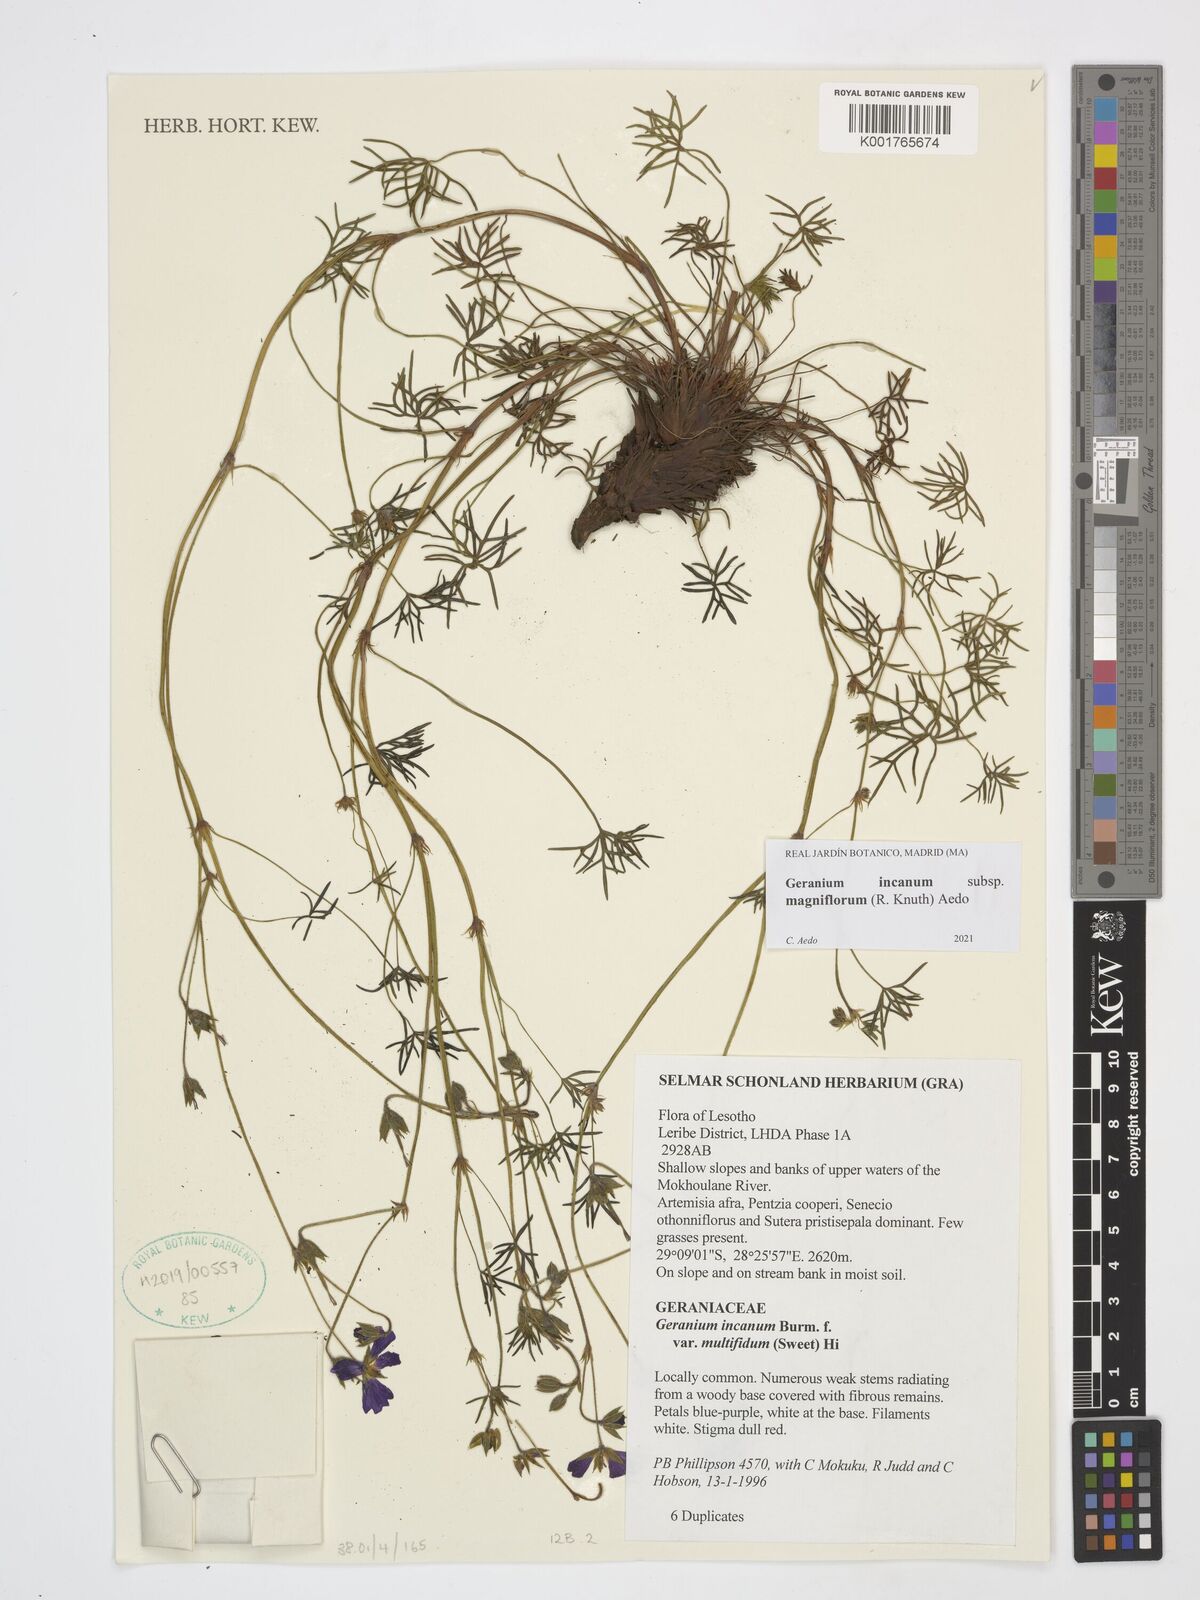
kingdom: Plantae
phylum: Tracheophyta
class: Magnoliopsida
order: Geraniales
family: Geraniaceae
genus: Geranium
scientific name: Geranium incanum
